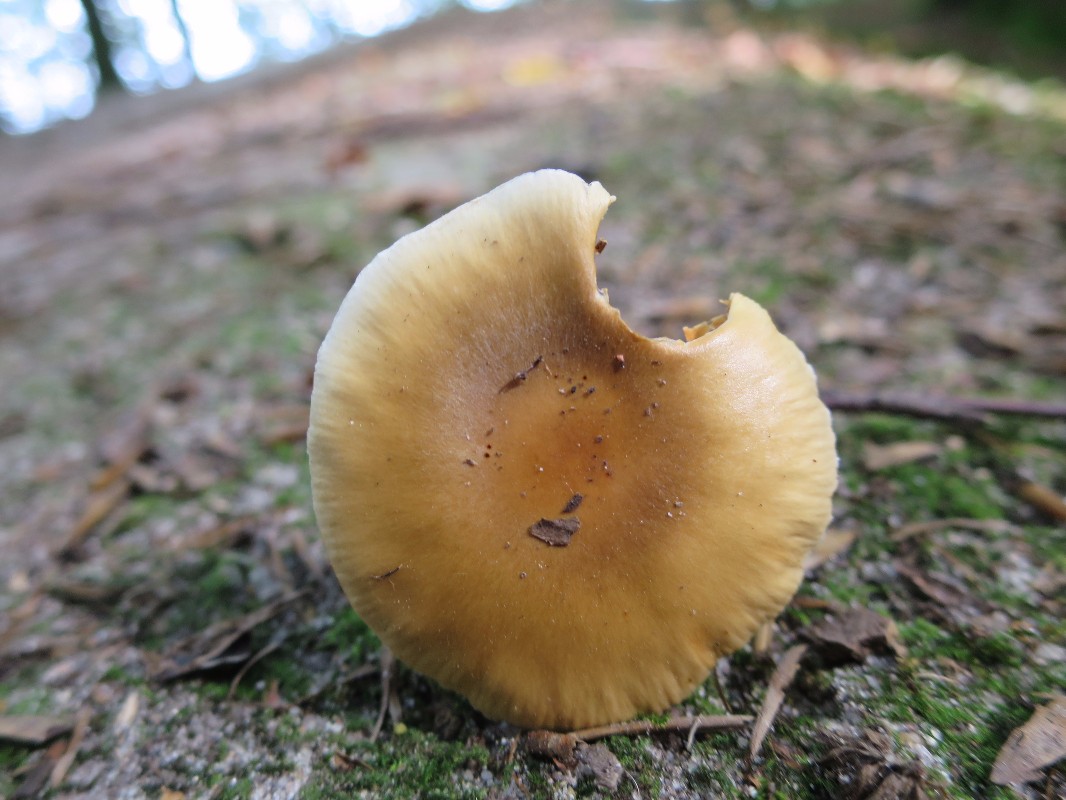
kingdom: Fungi
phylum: Basidiomycota
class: Agaricomycetes
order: Agaricales
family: Cortinariaceae
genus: Cortinarius
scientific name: Cortinarius elatior
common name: høj slørhat
